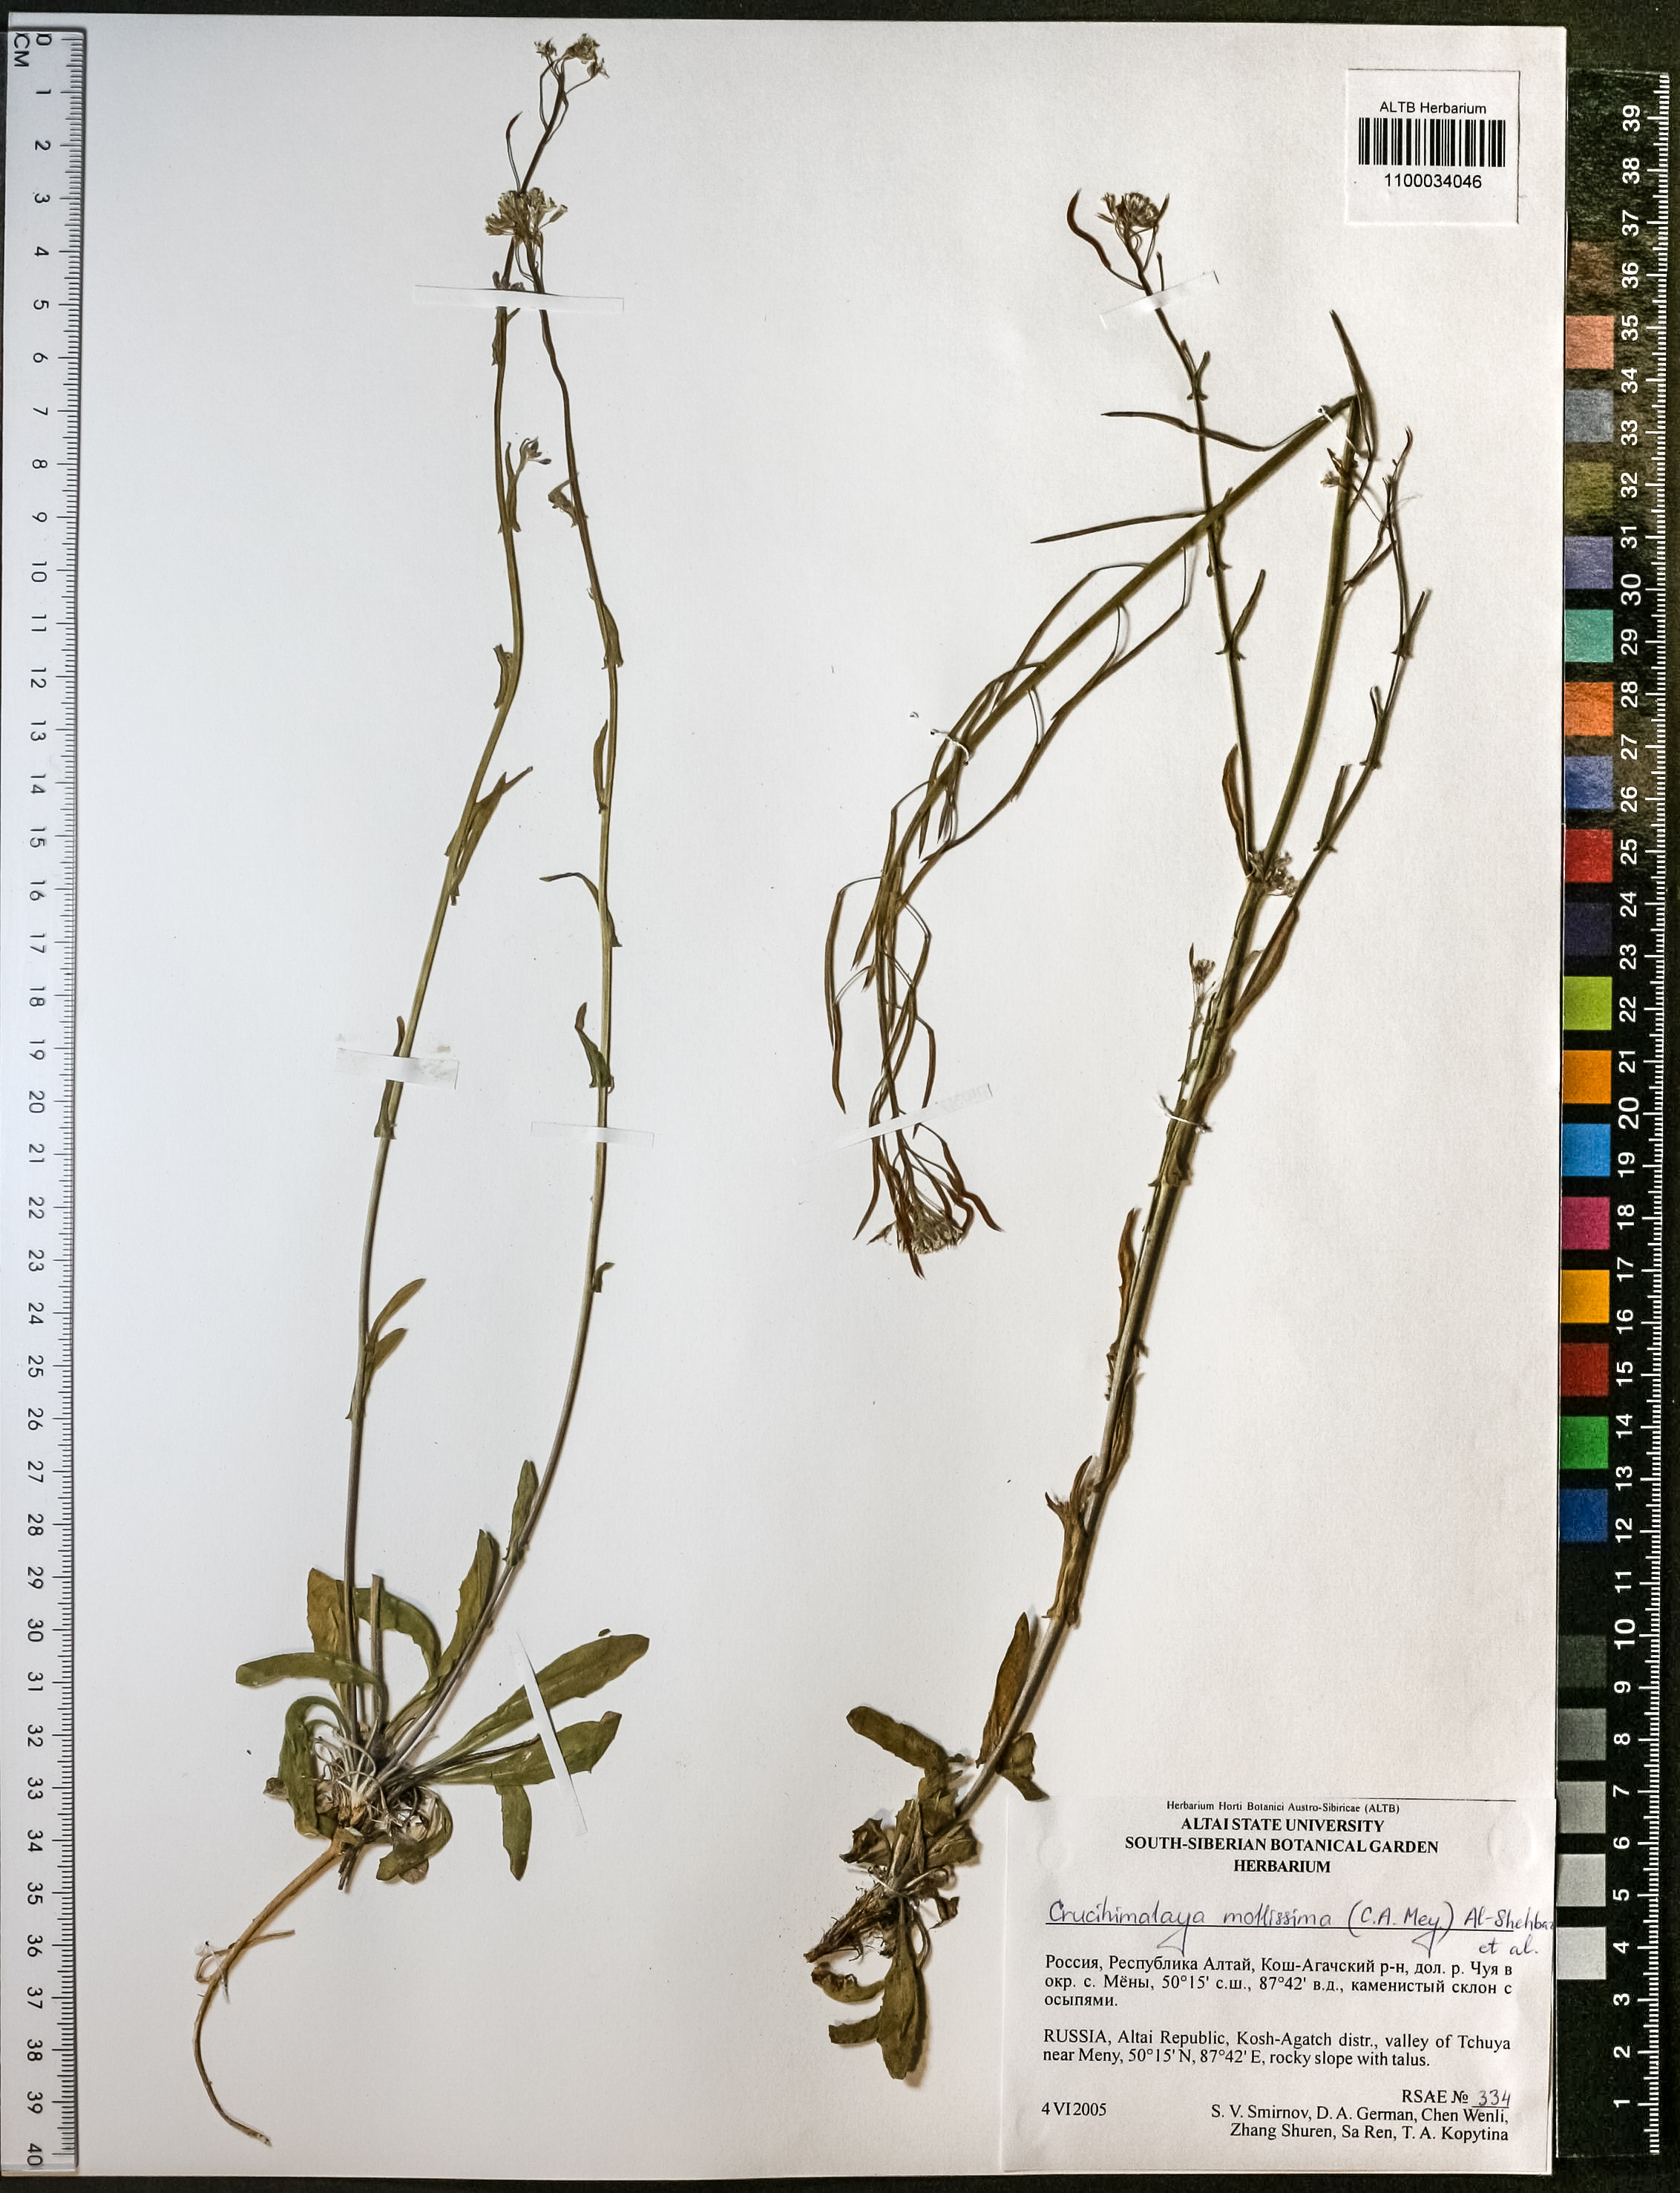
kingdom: Plantae
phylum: Tracheophyta
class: Magnoliopsida
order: Brassicales
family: Brassicaceae
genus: Crucihimalaya
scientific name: Crucihimalaya mollissima
